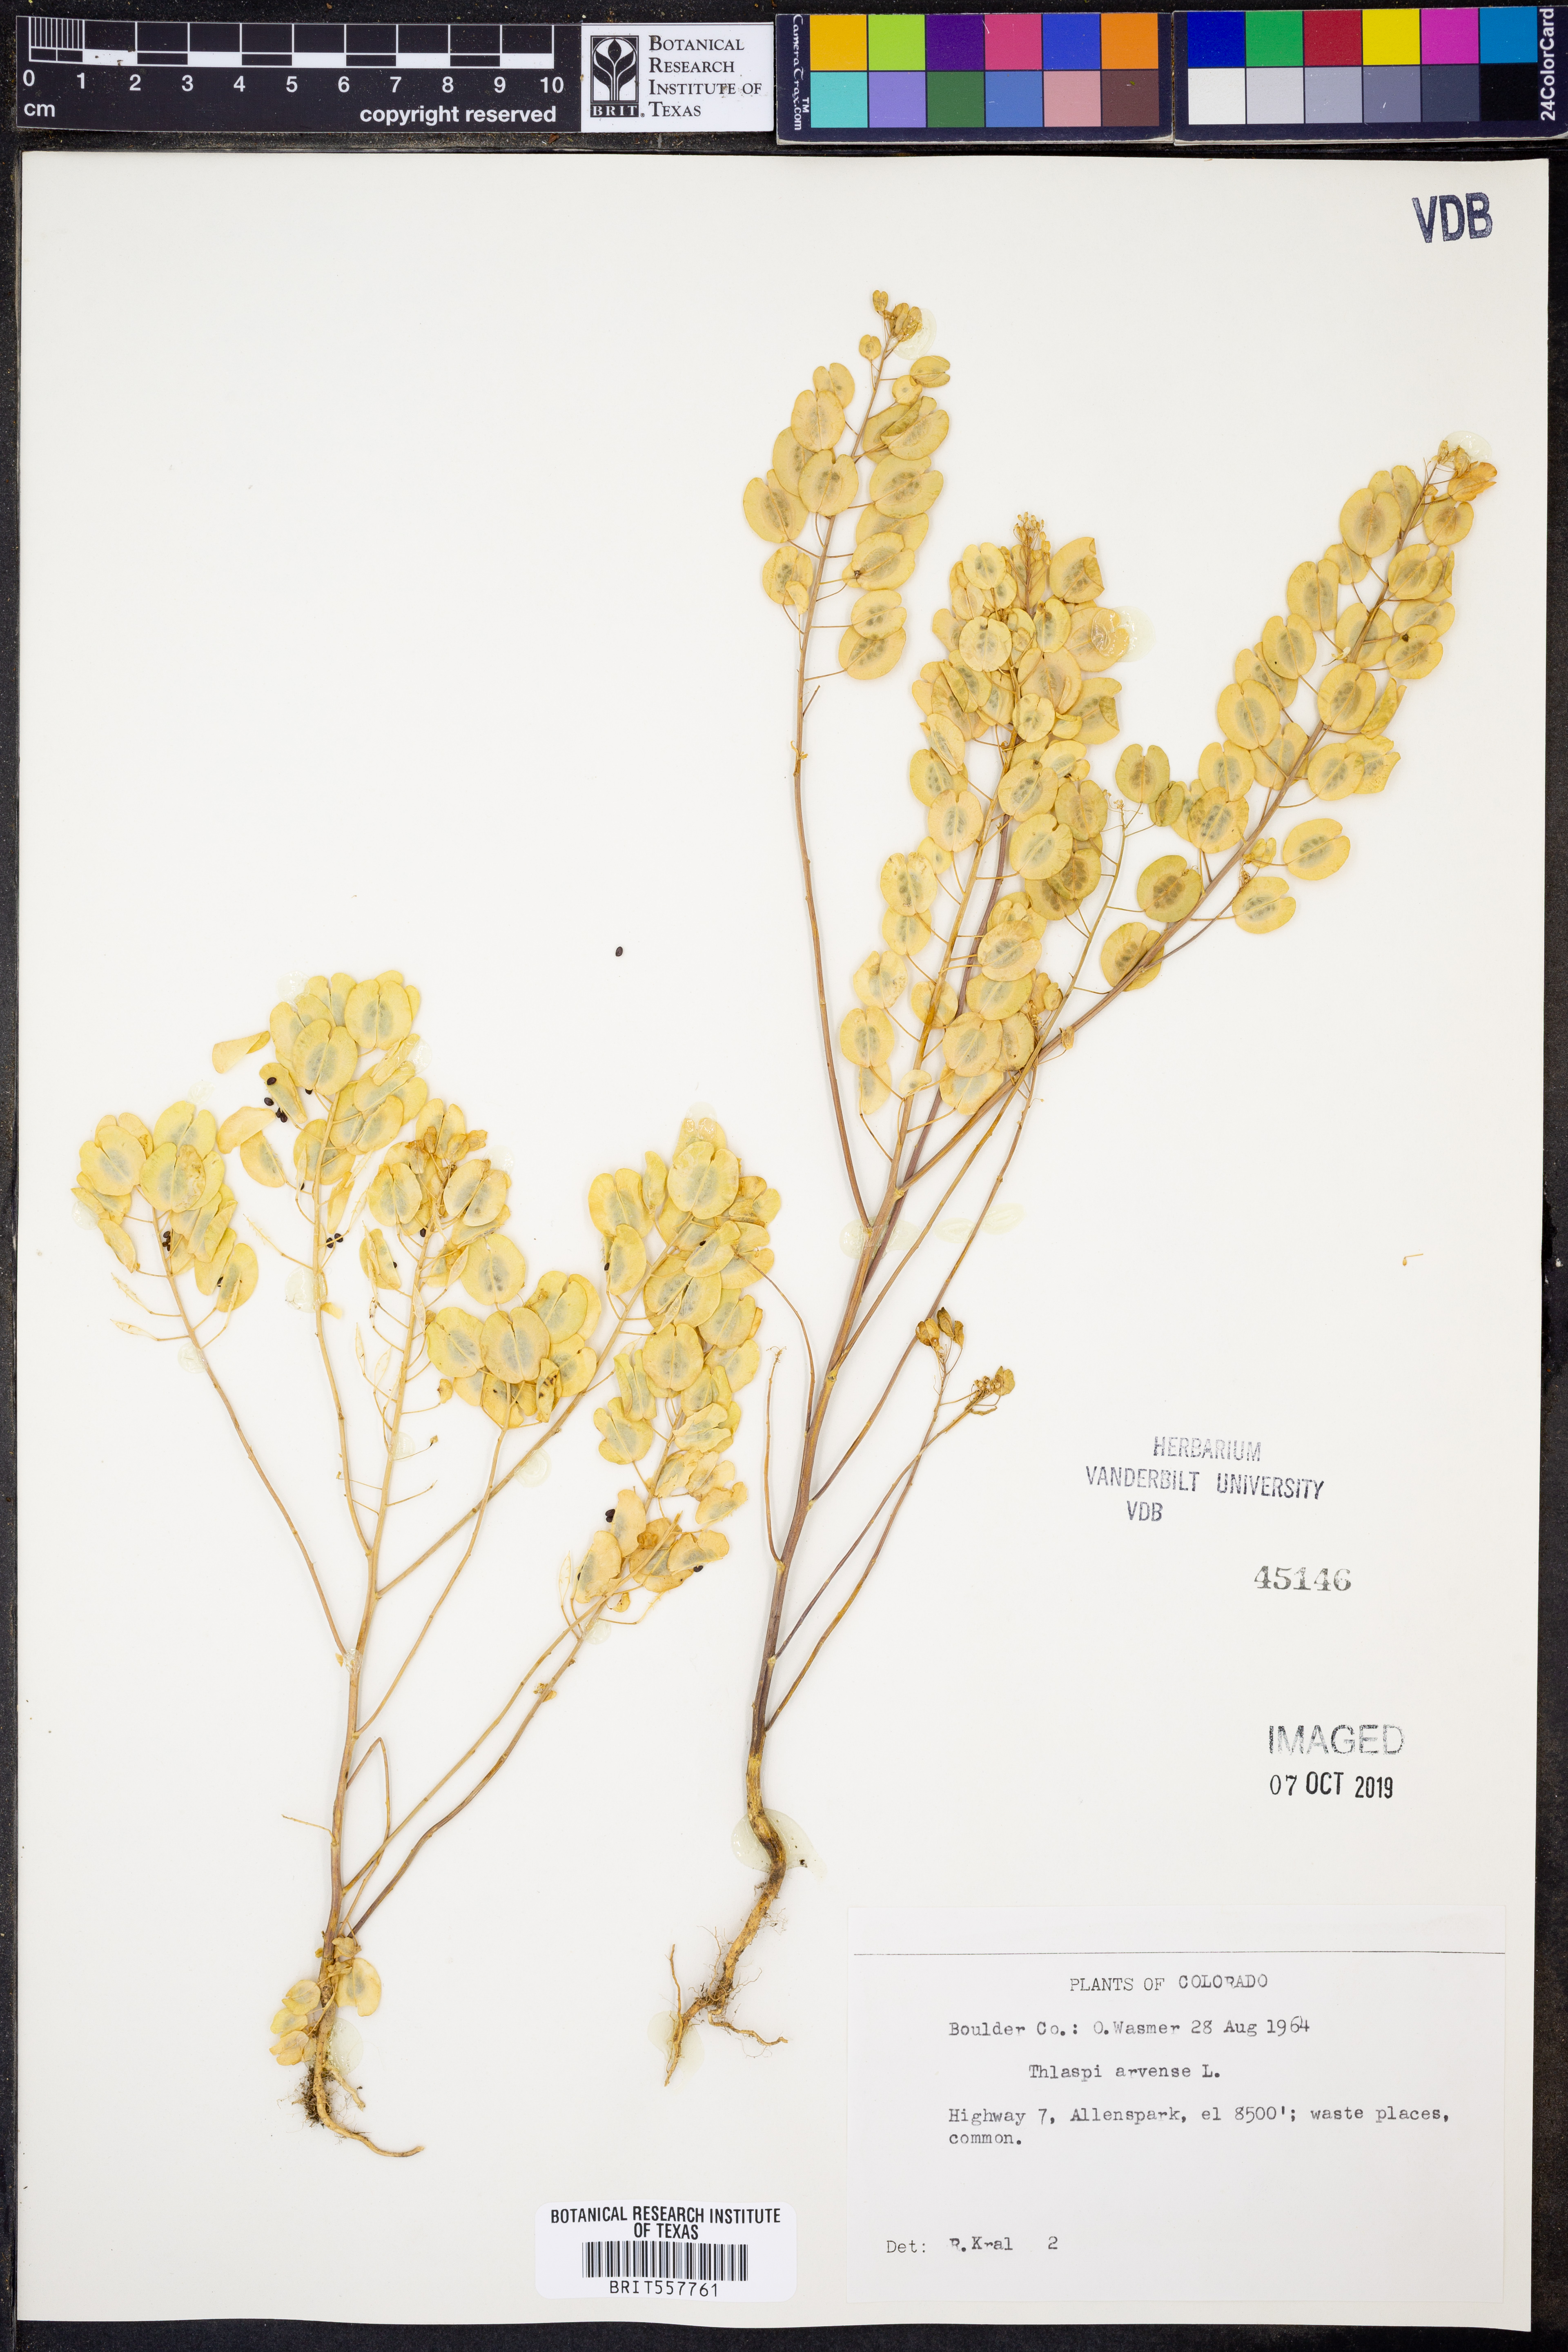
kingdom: Plantae
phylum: Tracheophyta
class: Magnoliopsida
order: Brassicales
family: Brassicaceae
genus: Thlaspi
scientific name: Thlaspi arvense
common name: Field pennycress
